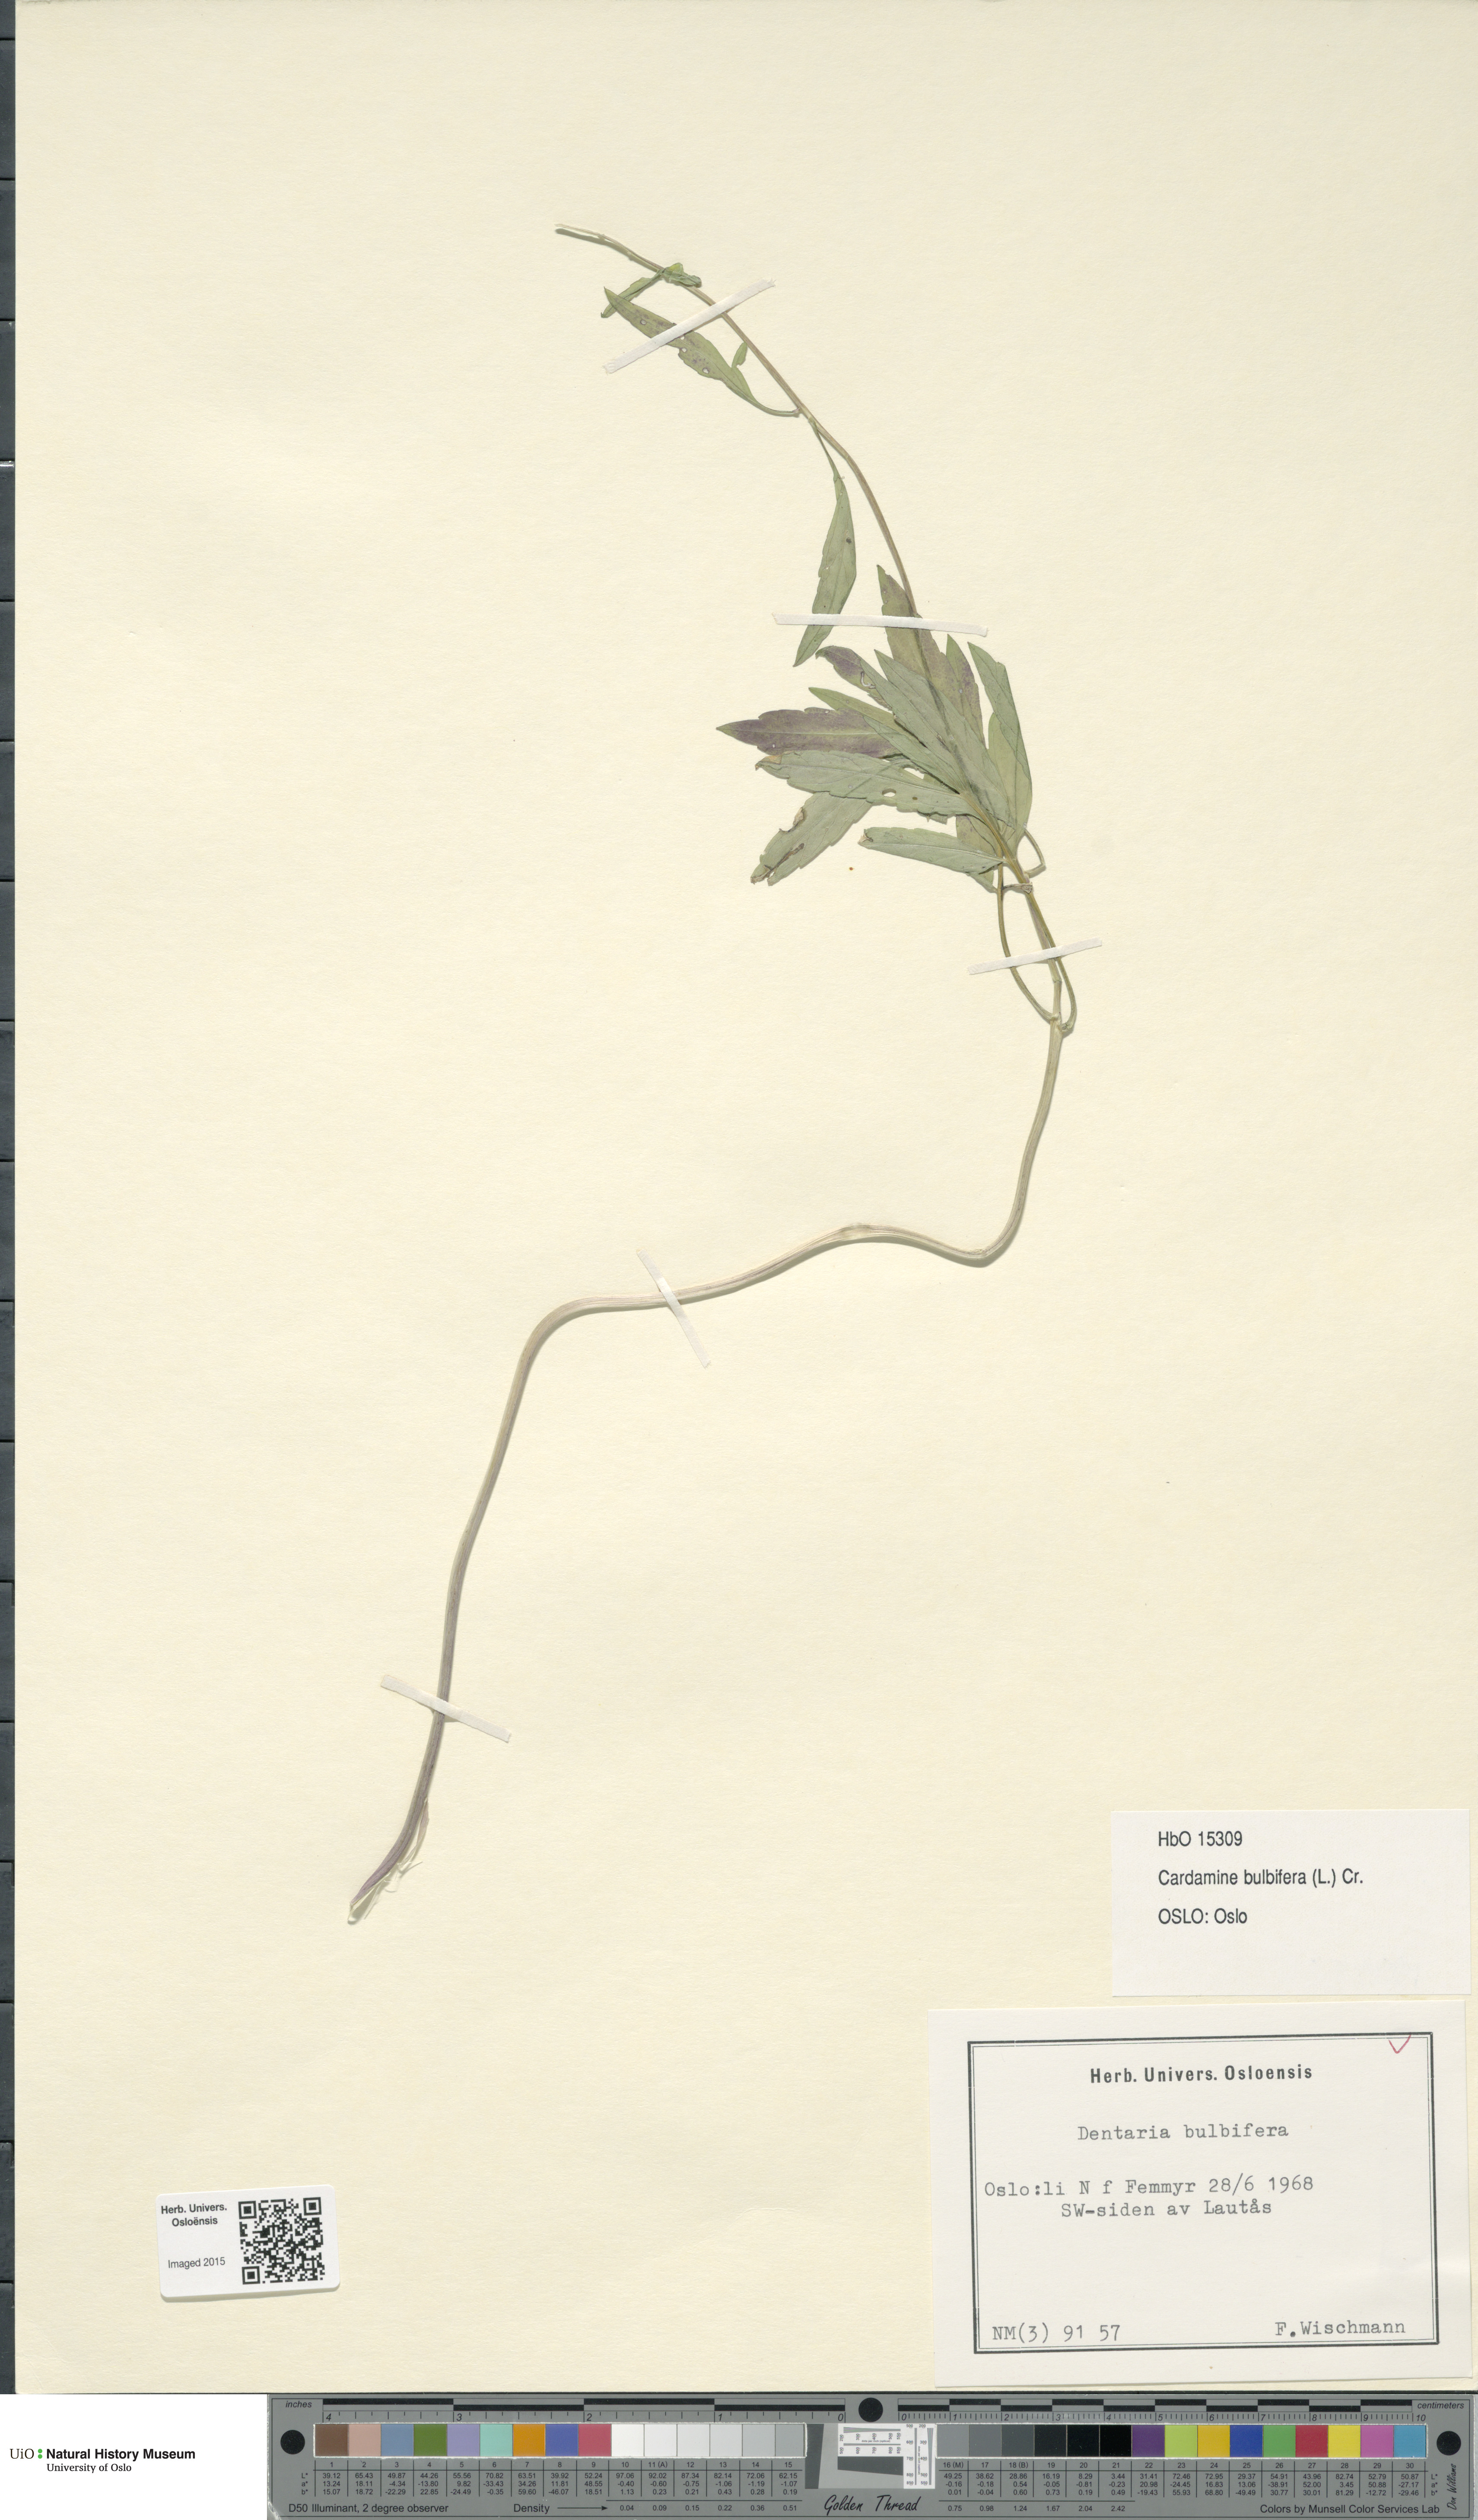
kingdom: Plantae
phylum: Tracheophyta
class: Magnoliopsida
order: Brassicales
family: Brassicaceae
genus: Cardamine
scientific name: Cardamine bulbifera
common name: Coralroot bittercress
